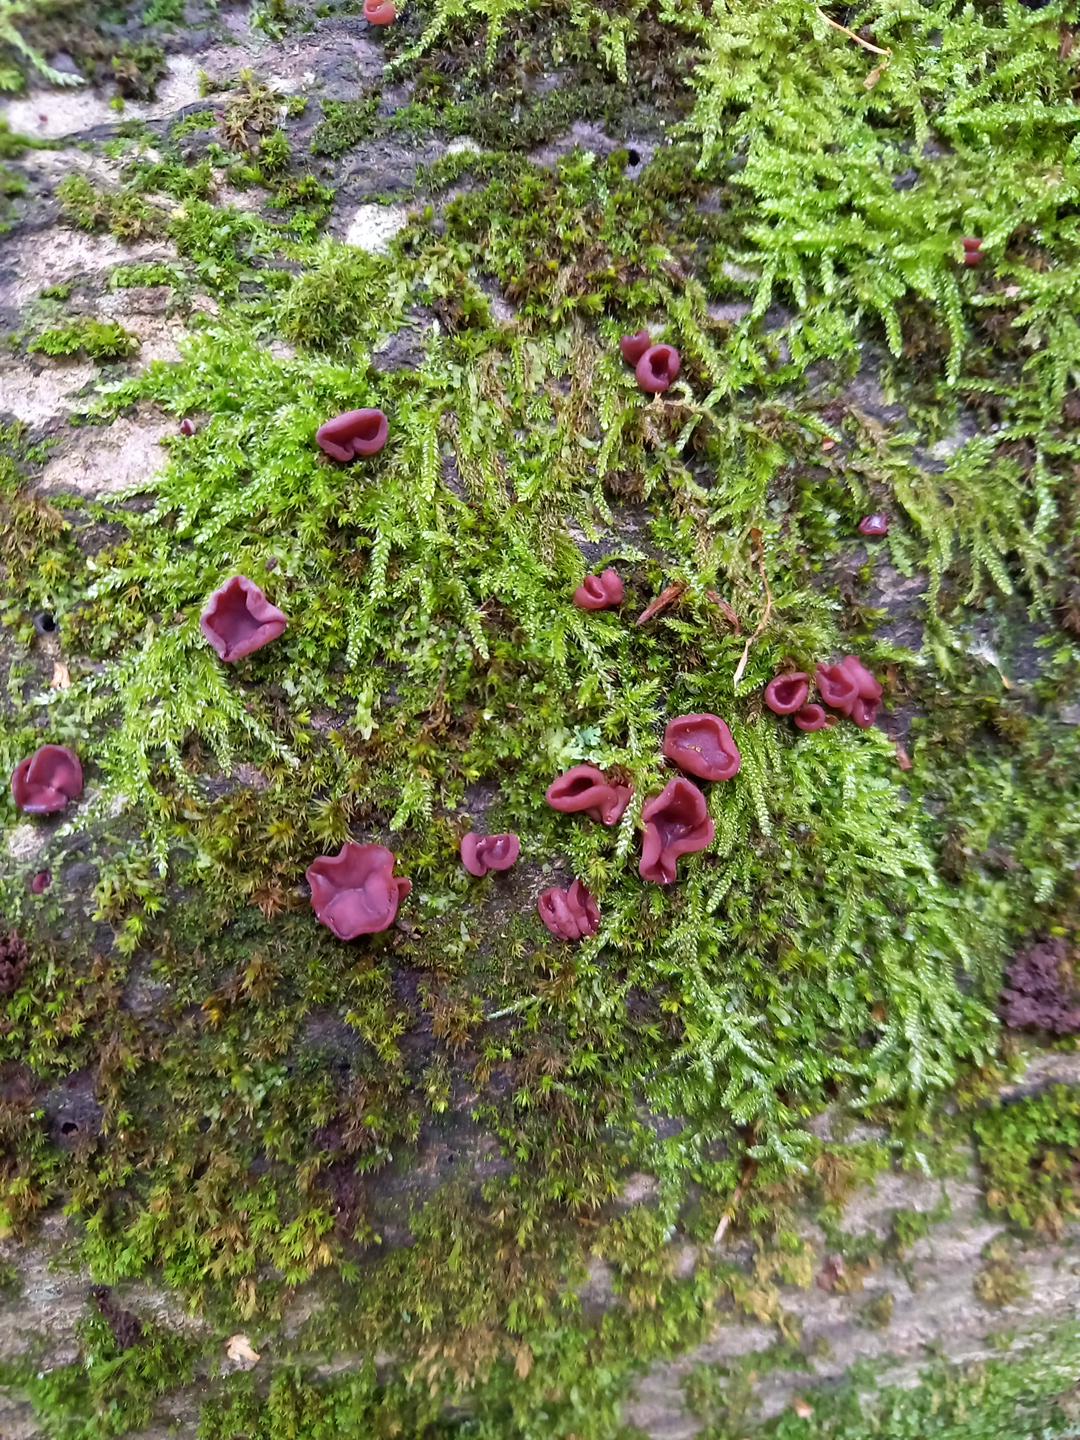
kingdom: Fungi
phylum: Ascomycota
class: Leotiomycetes
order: Helotiales
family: Gelatinodiscaceae
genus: Ascocoryne
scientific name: Ascocoryne cylichnium
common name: stor sejskive
